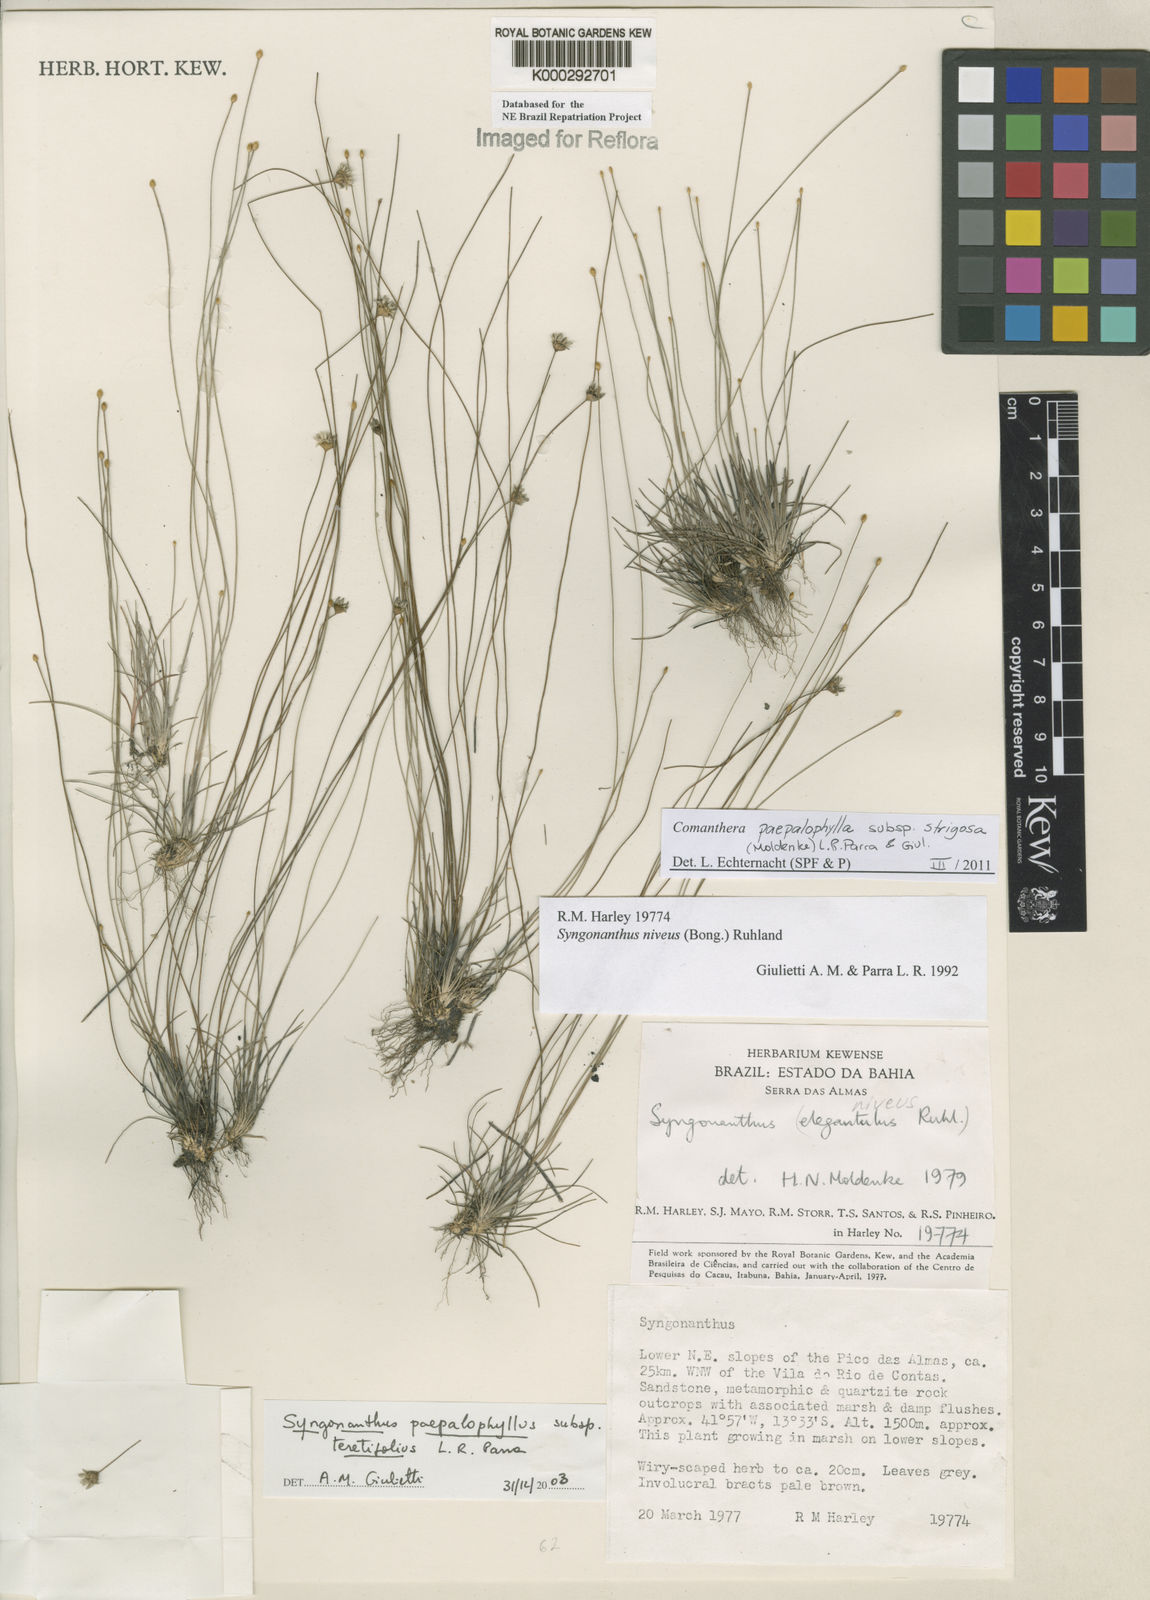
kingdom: Plantae
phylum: Tracheophyta
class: Liliopsida
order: Poales
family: Eriocaulaceae
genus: Comanthera
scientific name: Comanthera paepalophylla
